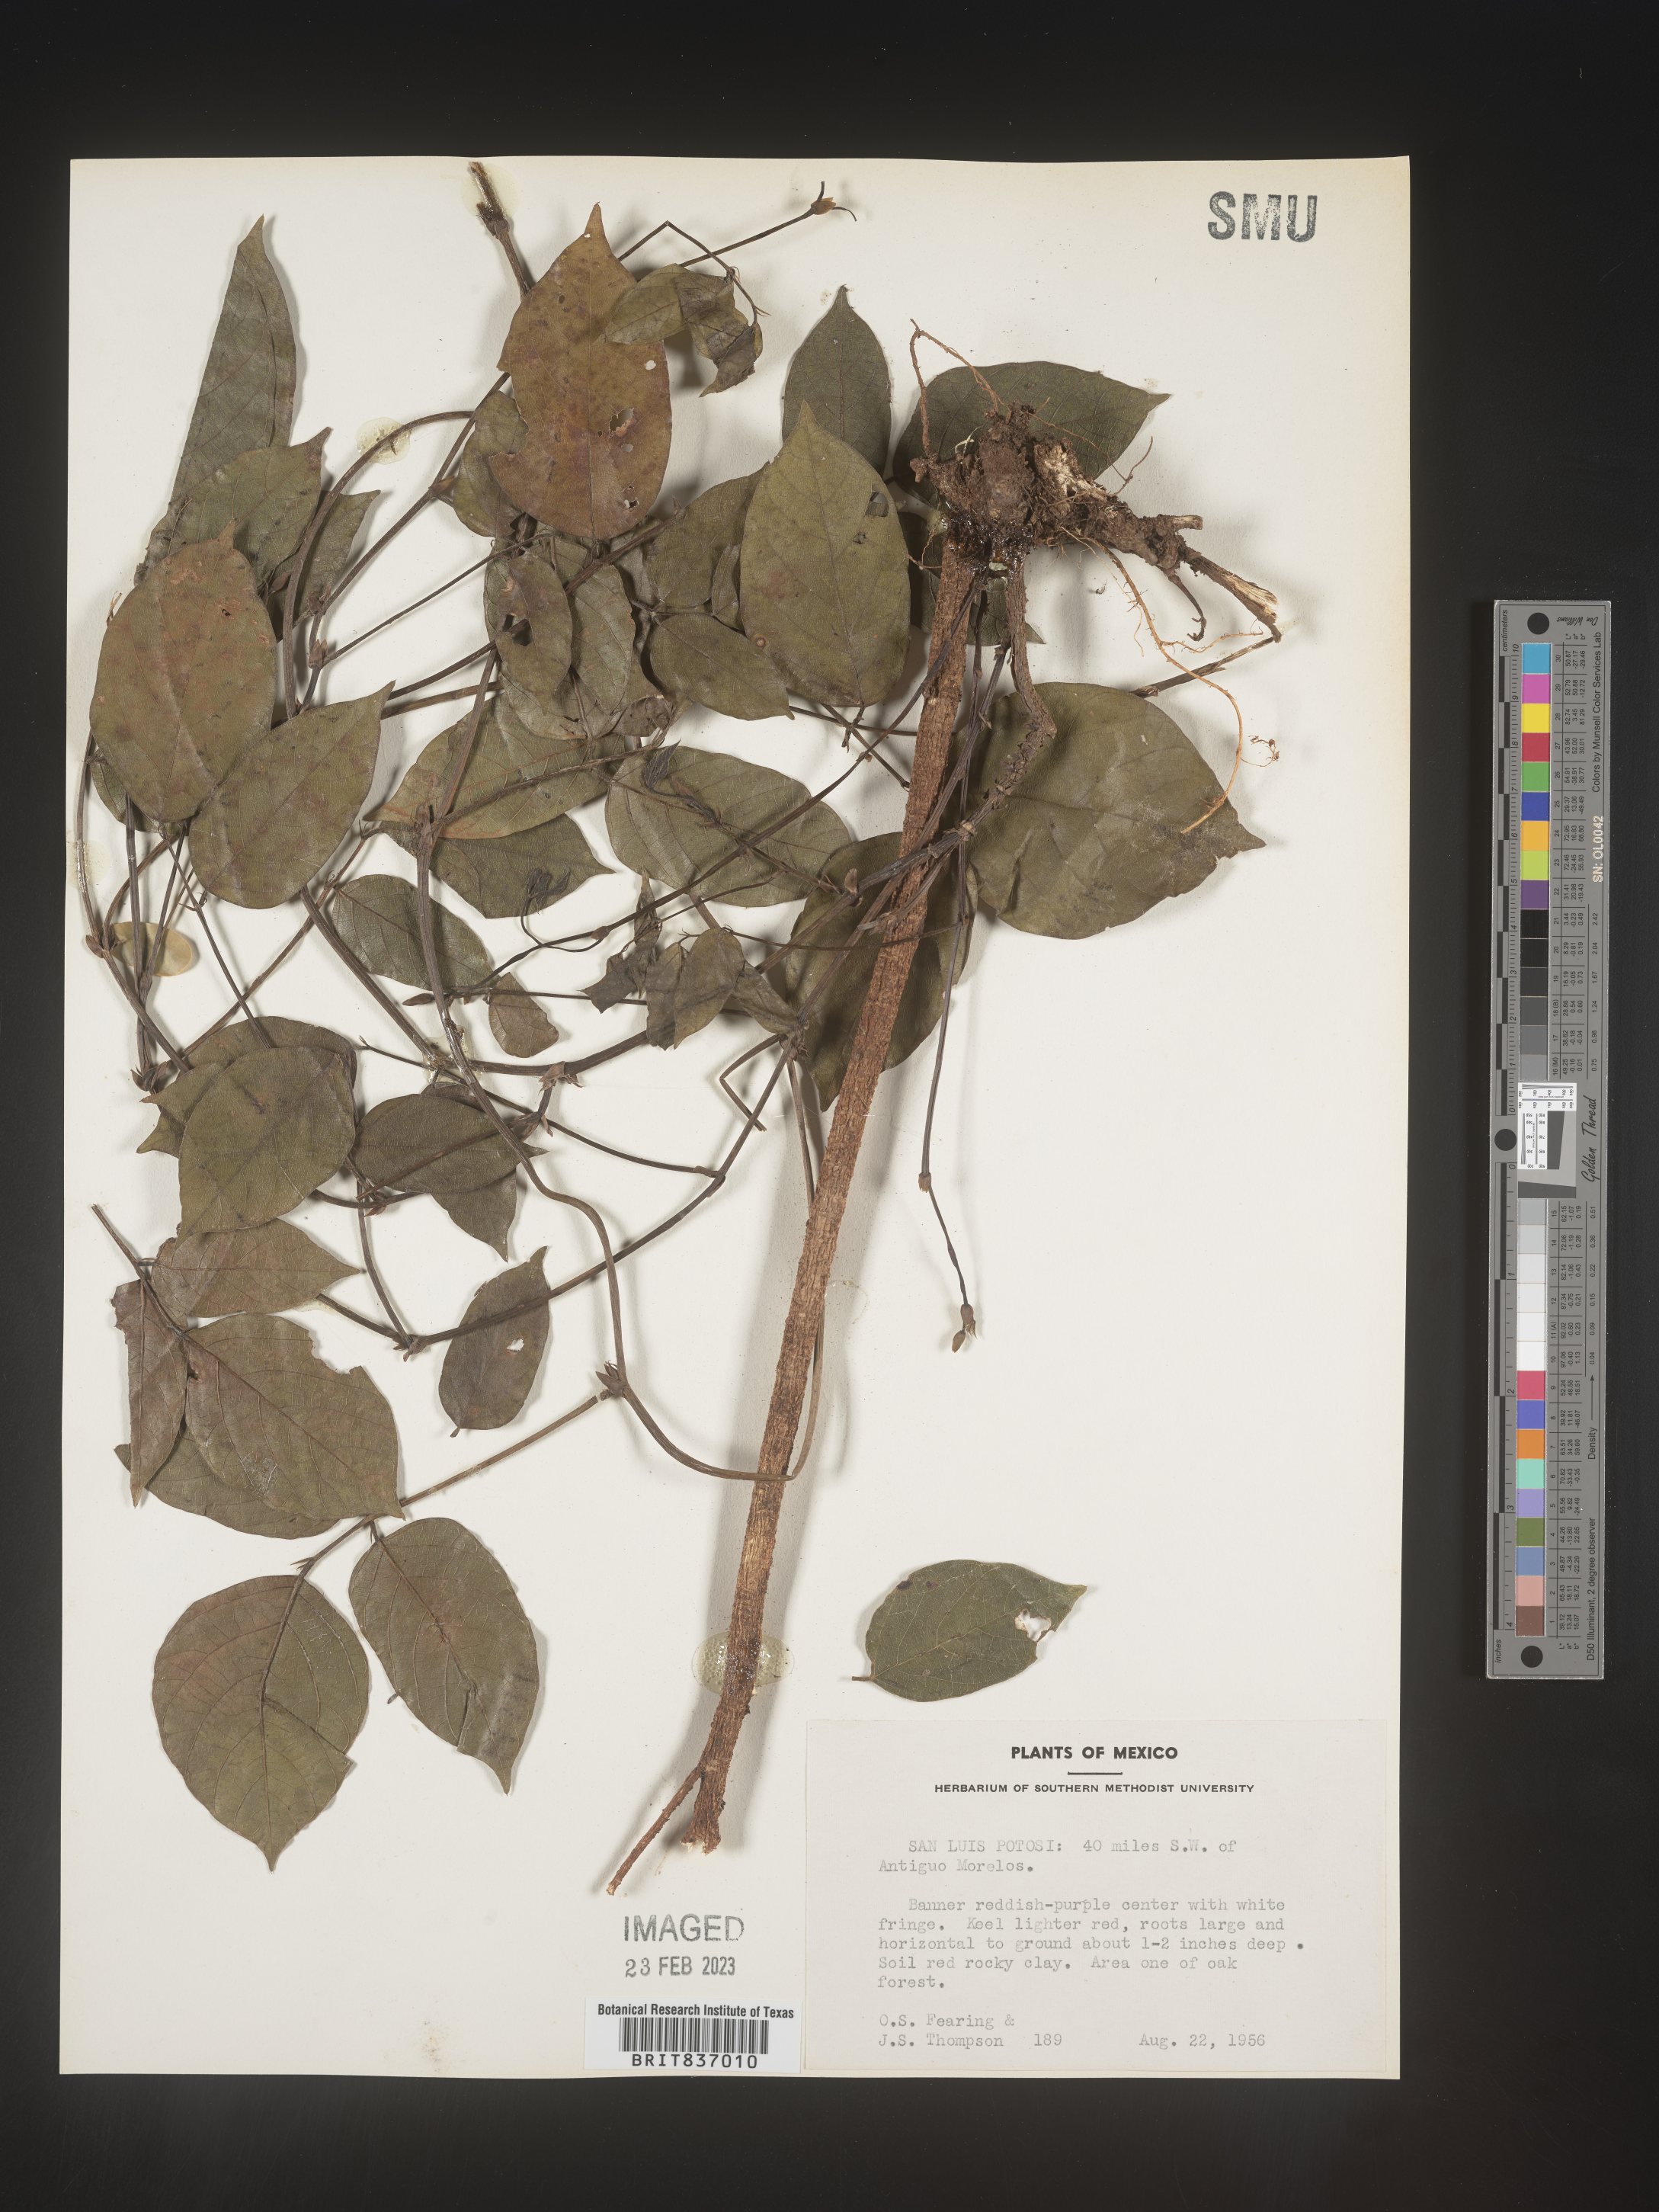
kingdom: Plantae
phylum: Tracheophyta
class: Magnoliopsida
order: Fabales
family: Fabaceae
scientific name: Fabaceae
